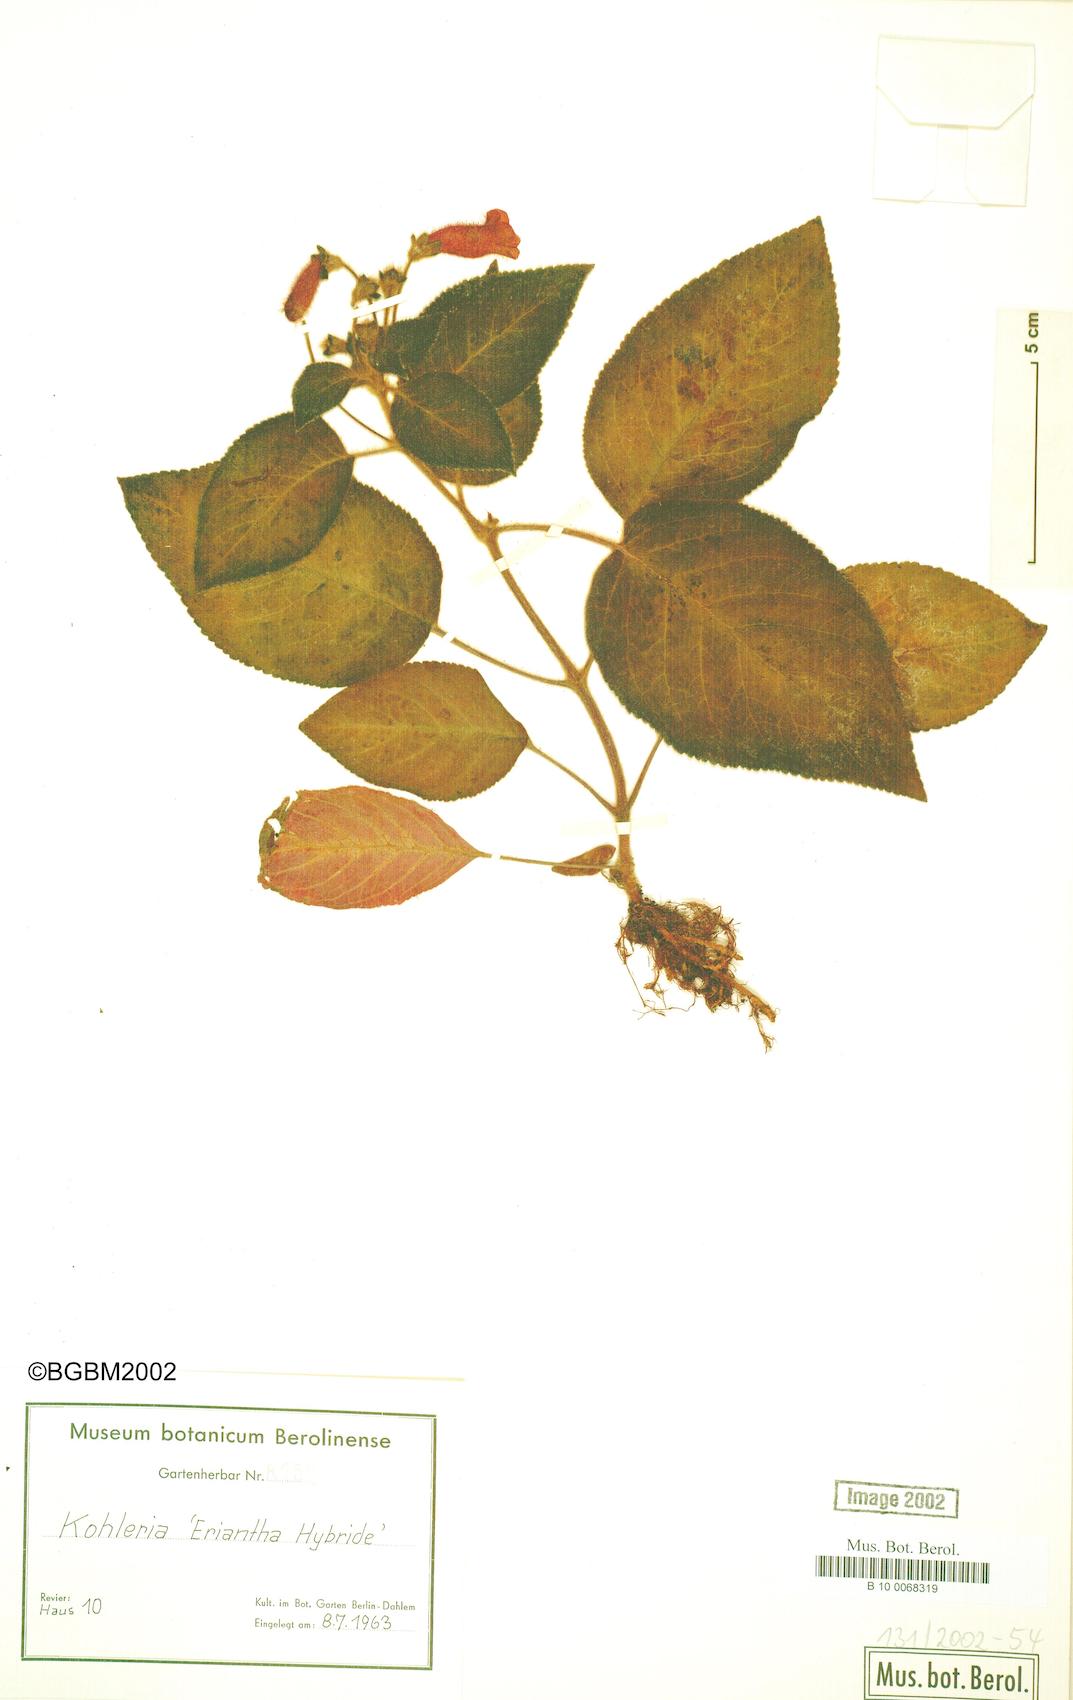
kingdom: Plantae
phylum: Tracheophyta
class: Magnoliopsida
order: Lamiales
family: Gesneriaceae
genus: Kohleria
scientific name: Kohleria
